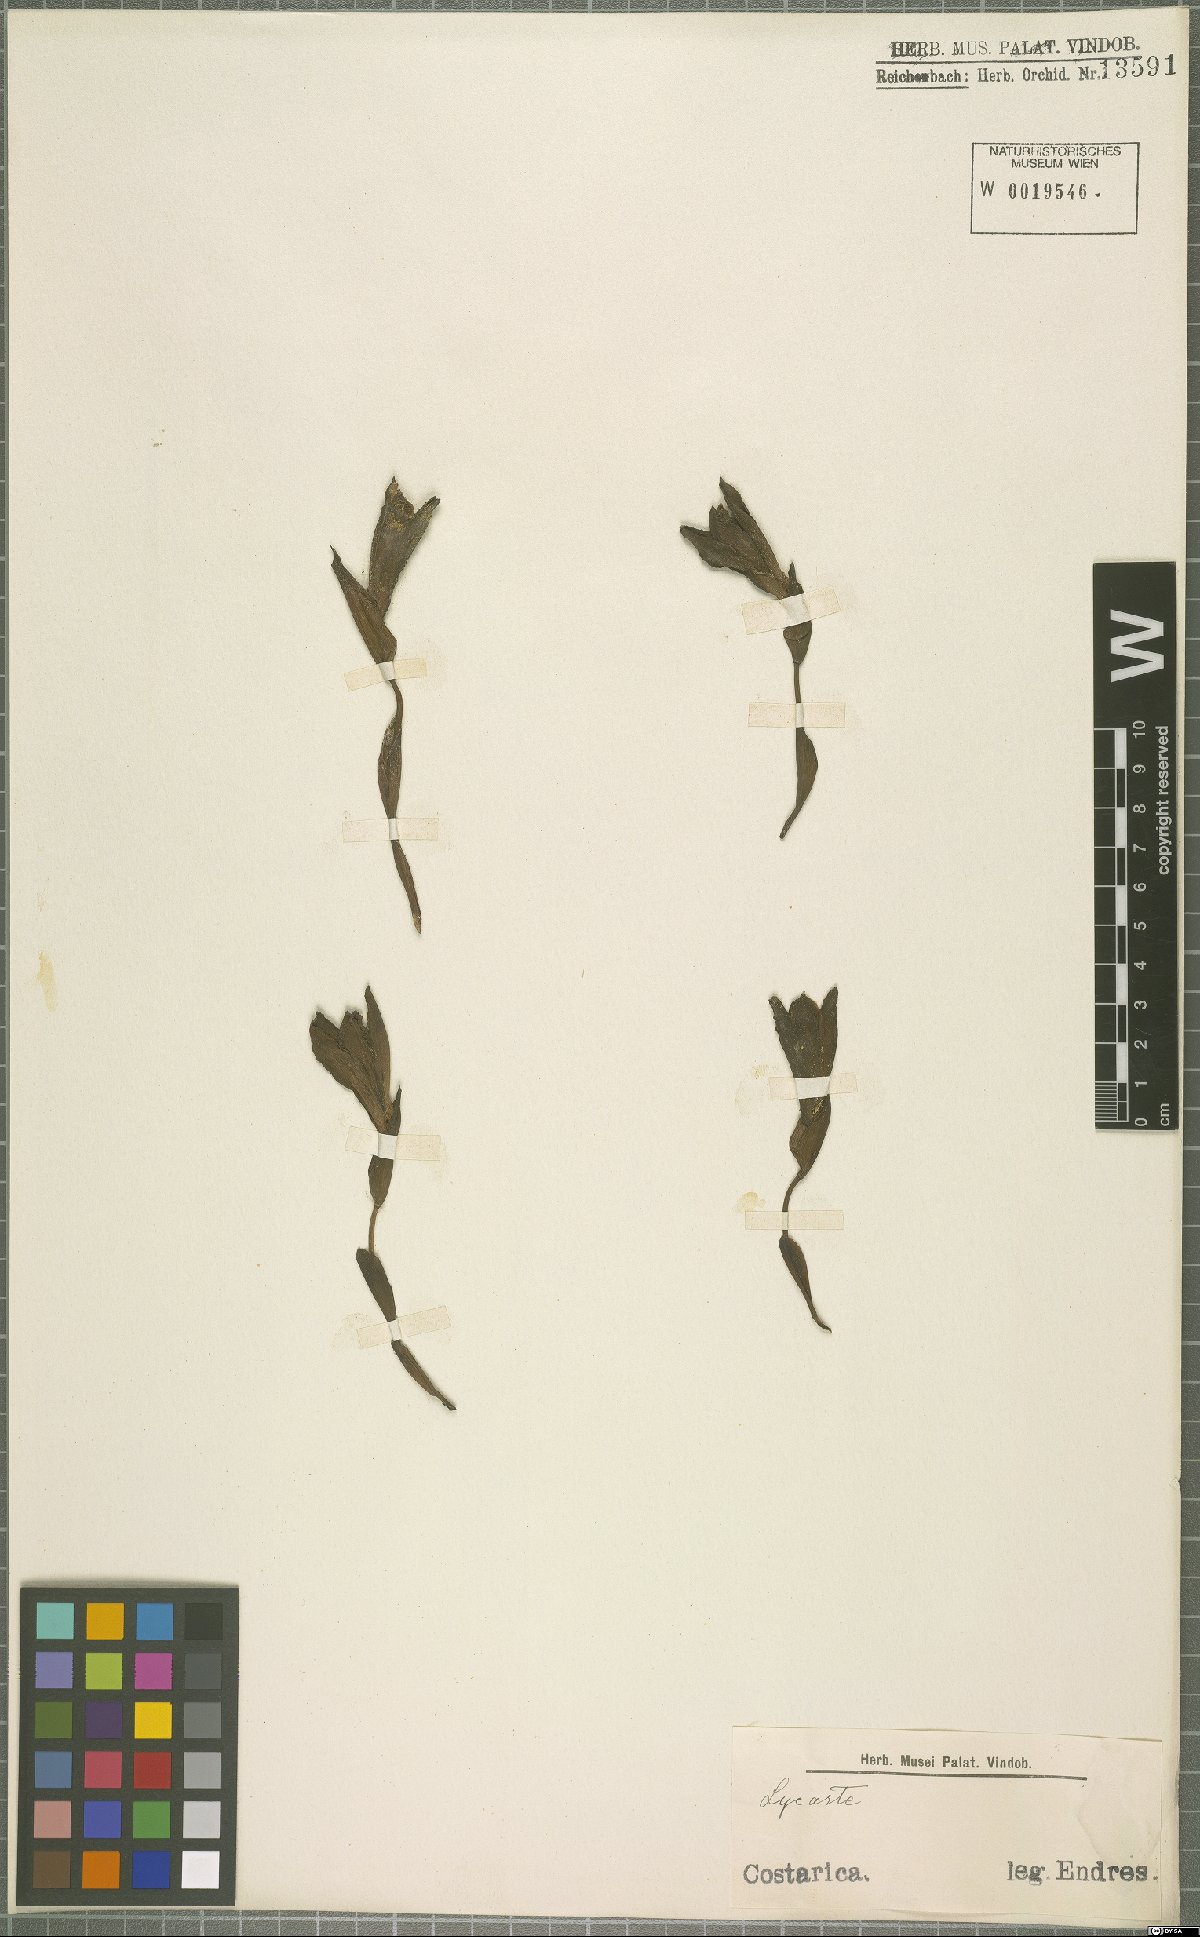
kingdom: Plantae
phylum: Tracheophyta
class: Liliopsida
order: Asparagales
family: Orchidaceae
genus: Lycaste
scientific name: Lycaste
